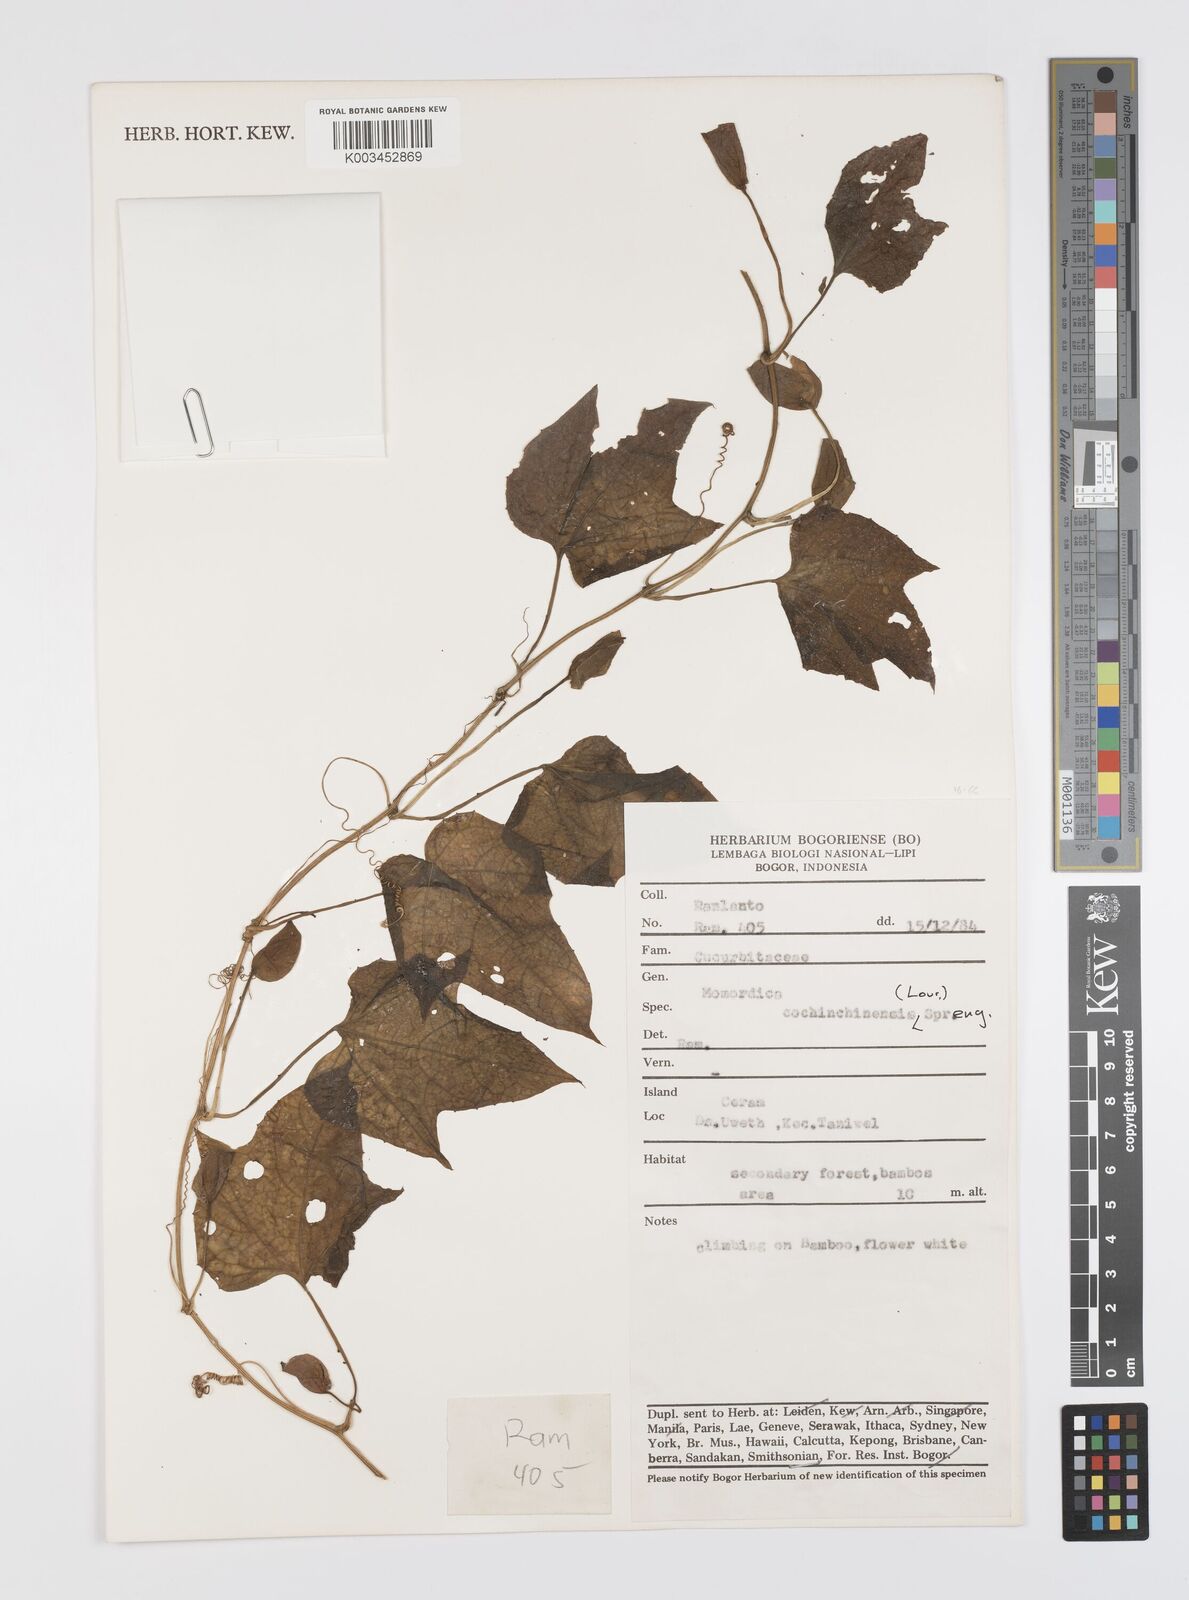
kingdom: Plantae
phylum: Tracheophyta
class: Magnoliopsida
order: Cucurbitales
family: Cucurbitaceae
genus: Momordica
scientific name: Momordica cochinchinensis
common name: Chinese bitter-cucumber
